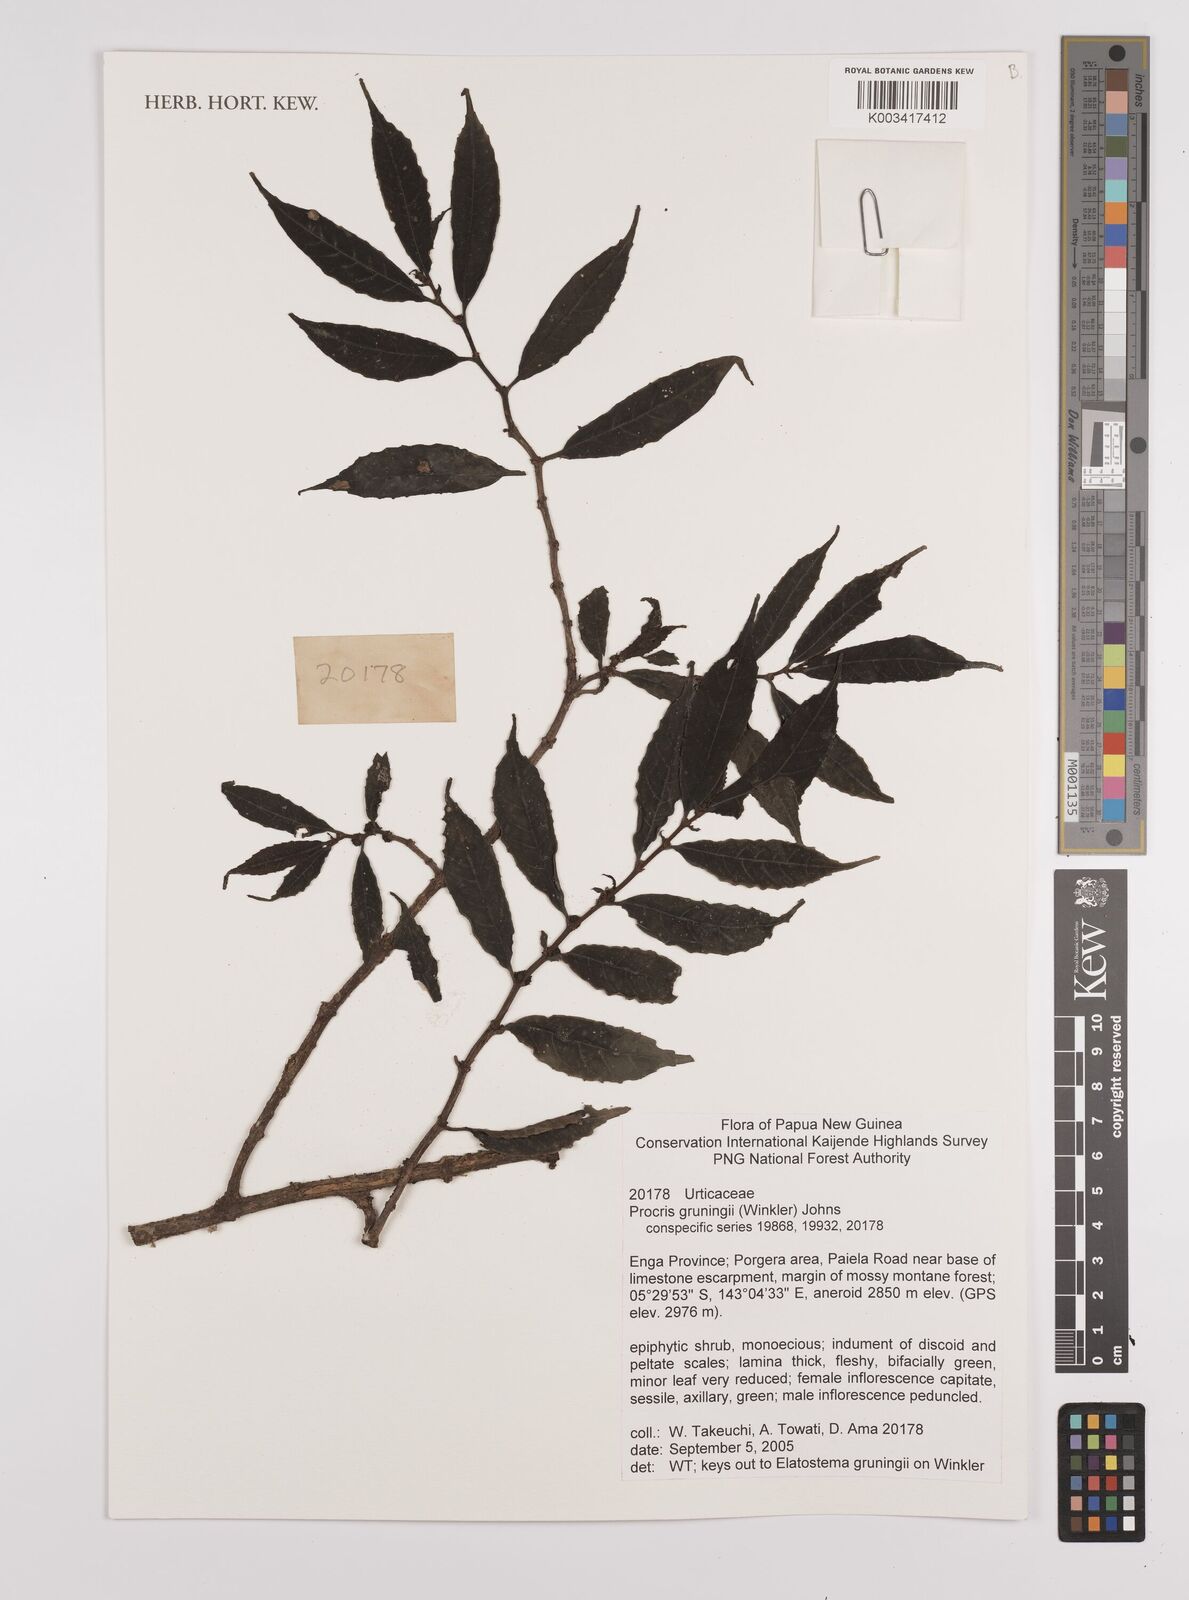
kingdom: Plantae
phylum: Tracheophyta
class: Magnoliopsida
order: Rosales
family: Urticaceae
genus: Procris
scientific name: Procris grueningii
